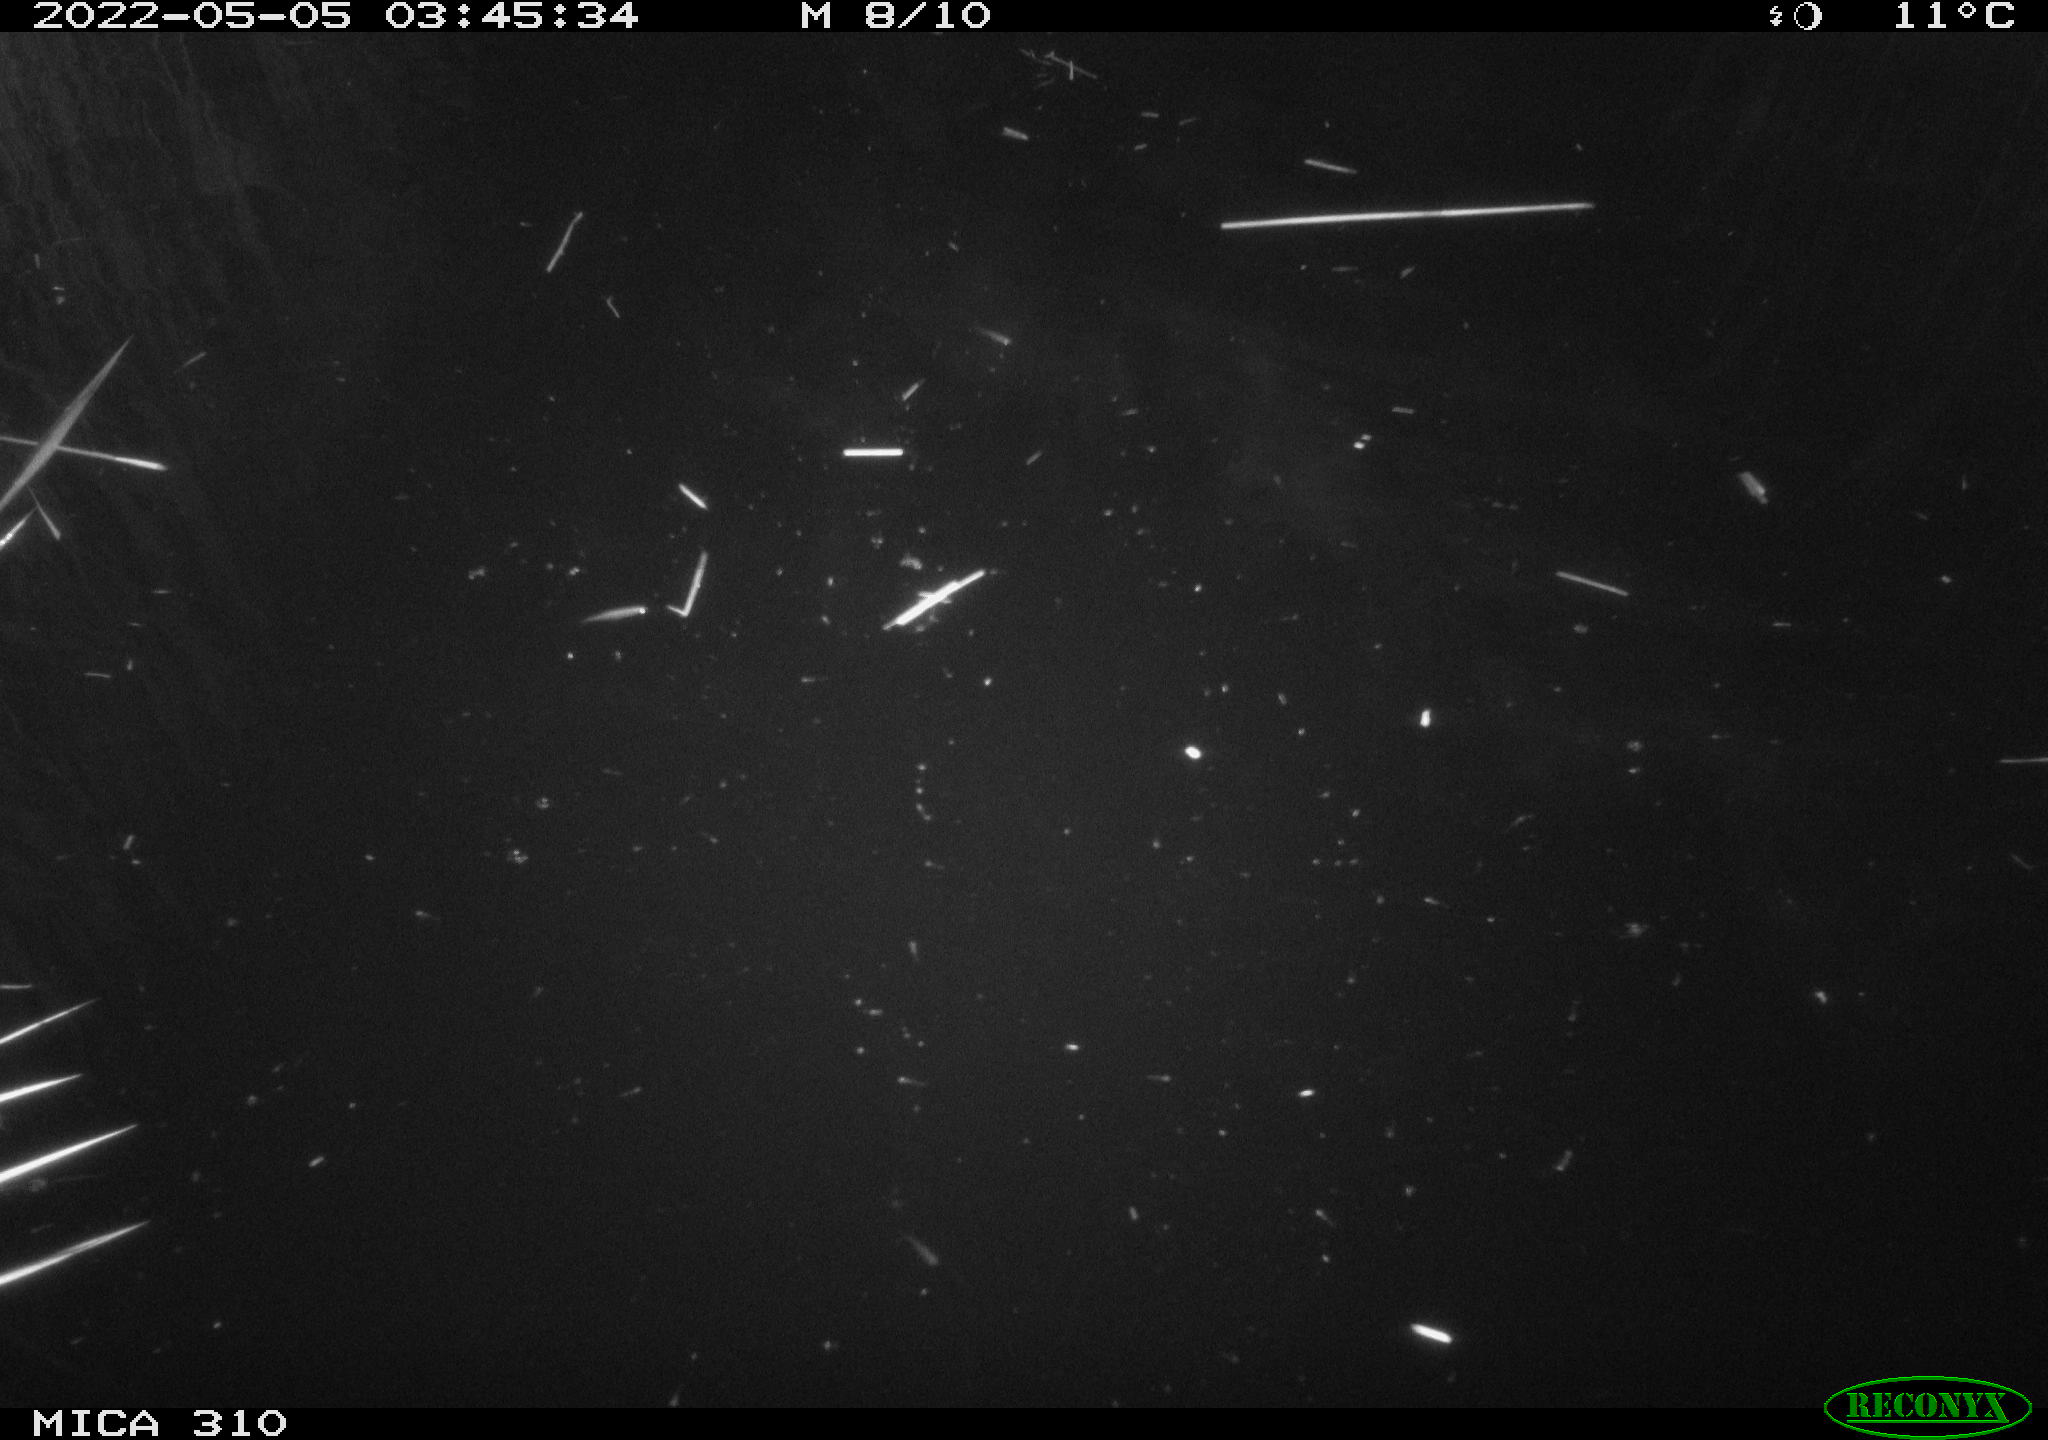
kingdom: Animalia
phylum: Chordata
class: Mammalia
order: Rodentia
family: Cricetidae
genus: Ondatra
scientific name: Ondatra zibethicus
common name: Muskrat
